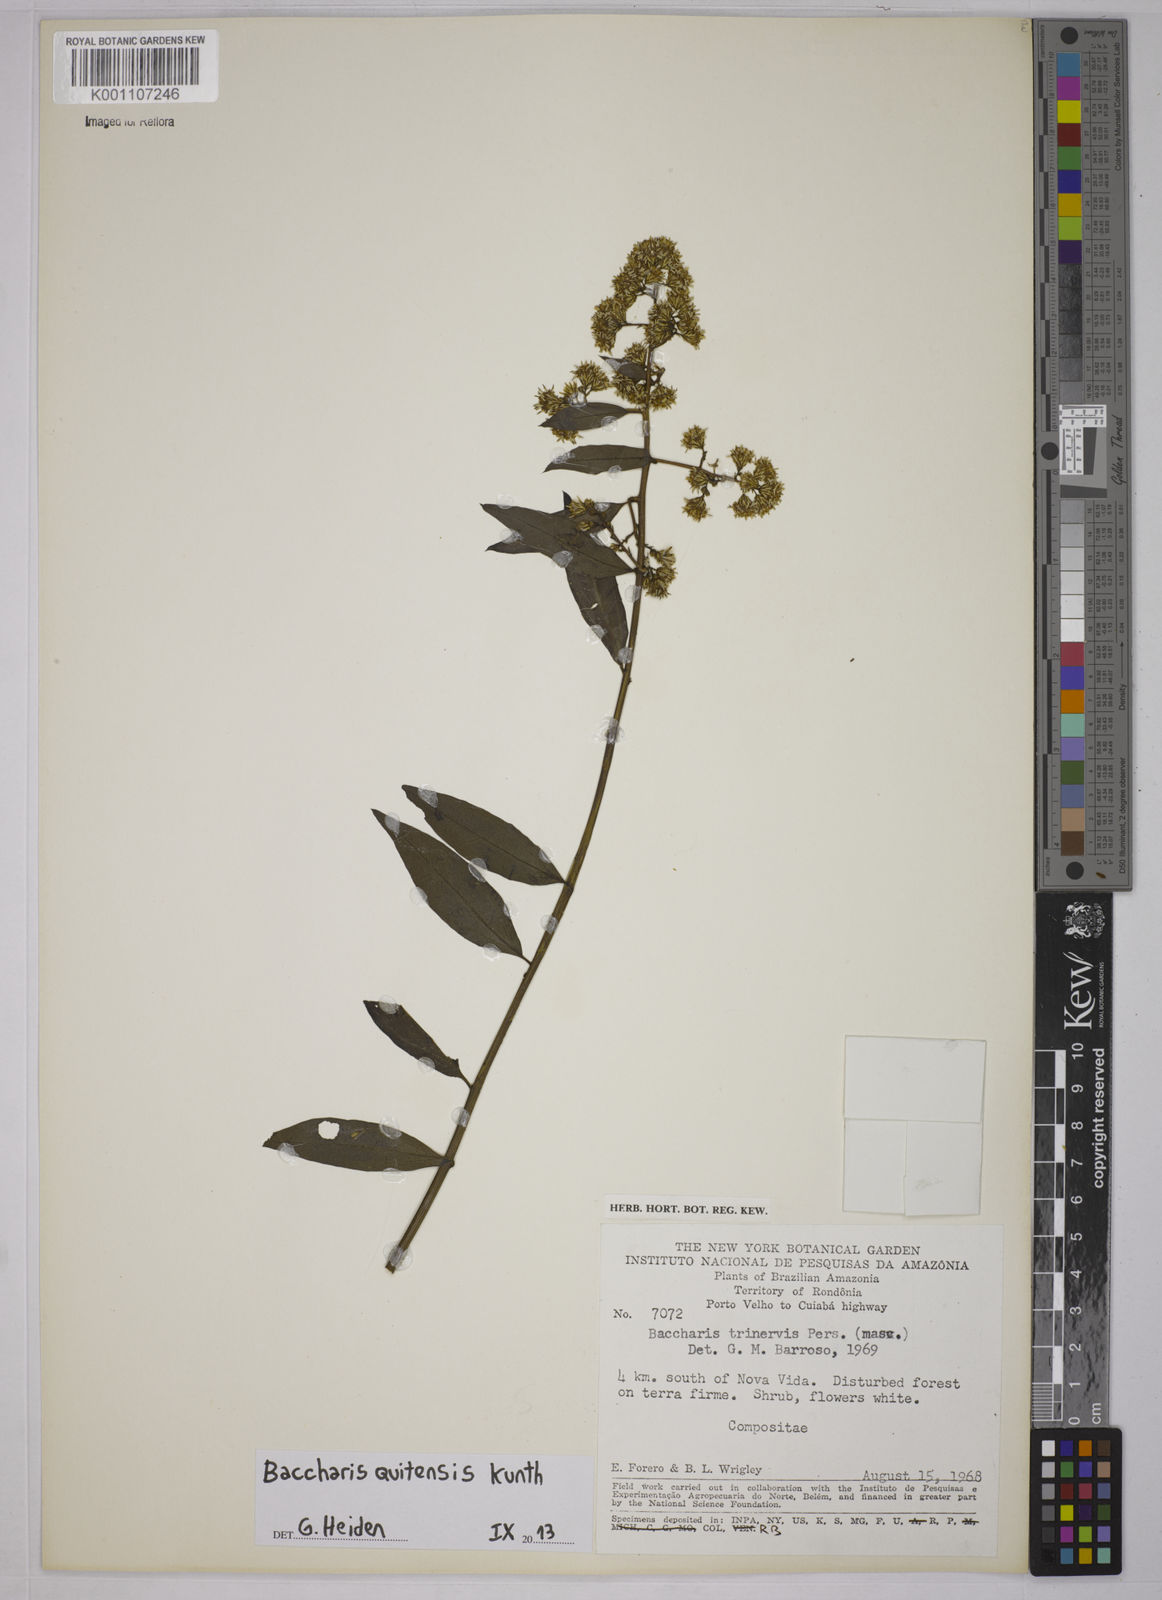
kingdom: Plantae
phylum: Tracheophyta
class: Magnoliopsida
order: Asterales
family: Asteraceae
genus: Baccharis
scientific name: Baccharis quitensis
